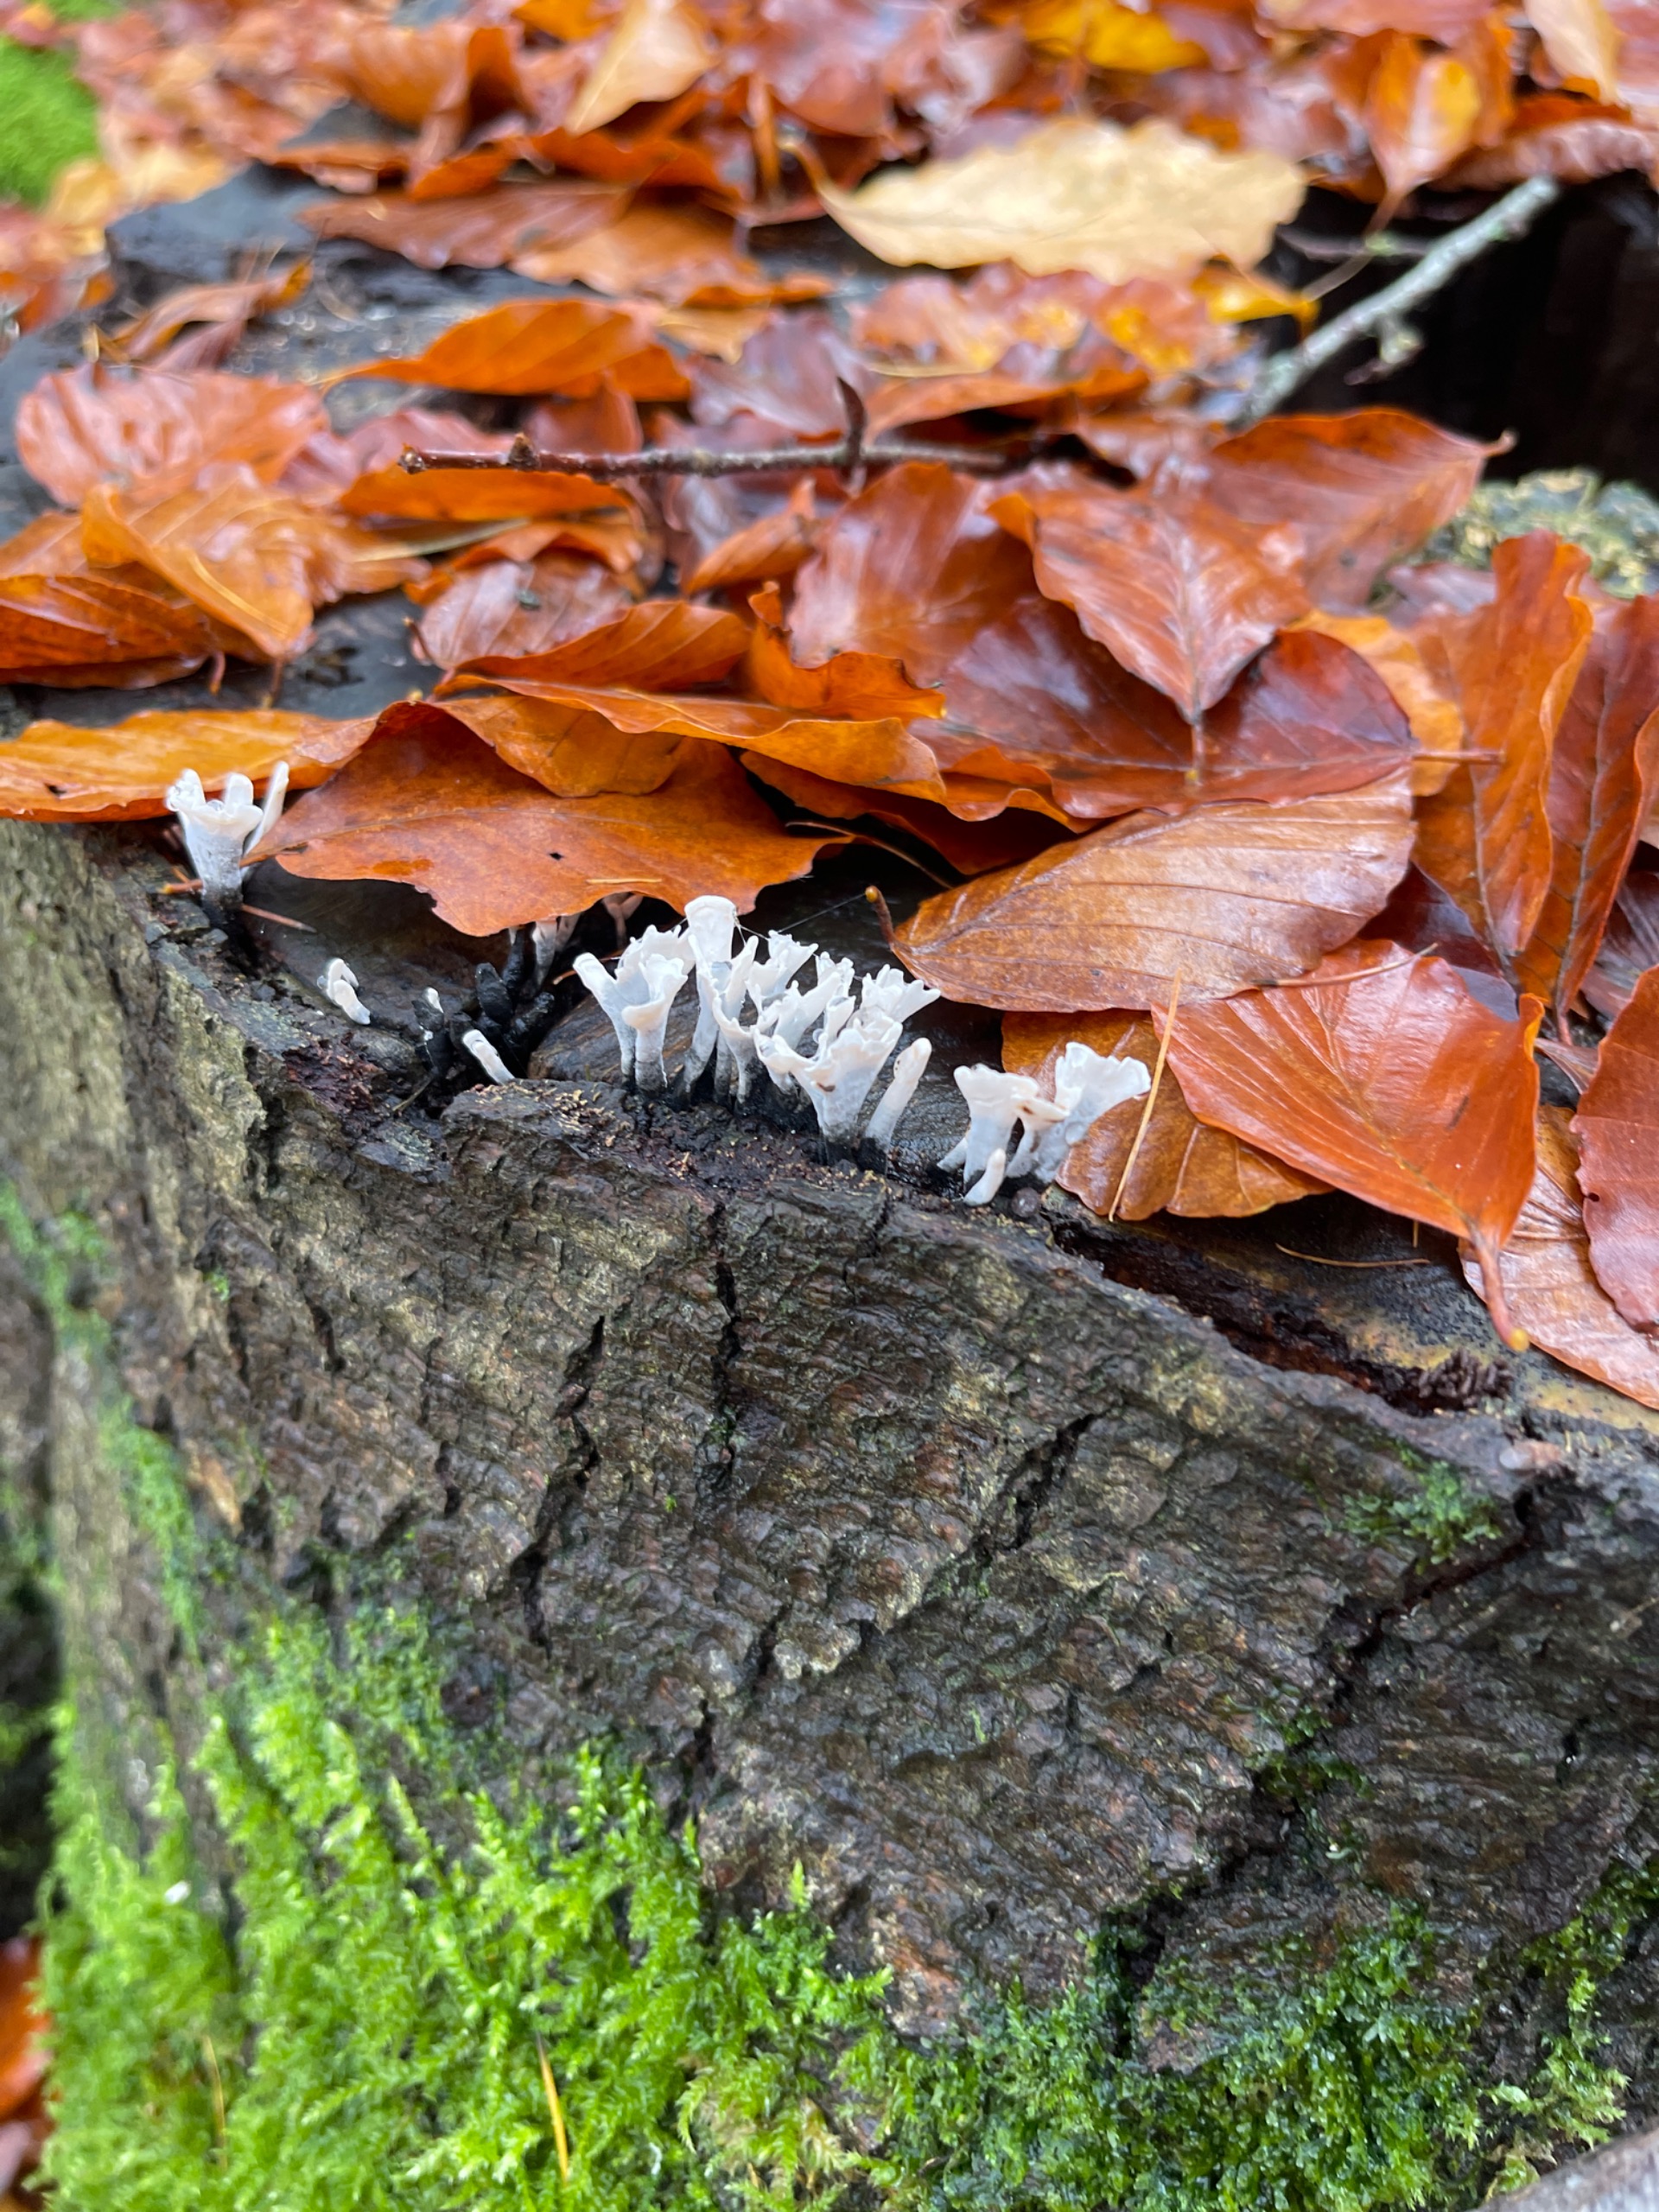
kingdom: Fungi
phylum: Ascomycota
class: Sordariomycetes
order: Xylariales
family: Xylariaceae
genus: Xylaria
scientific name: Xylaria hypoxylon
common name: Grenet stødsvamp
